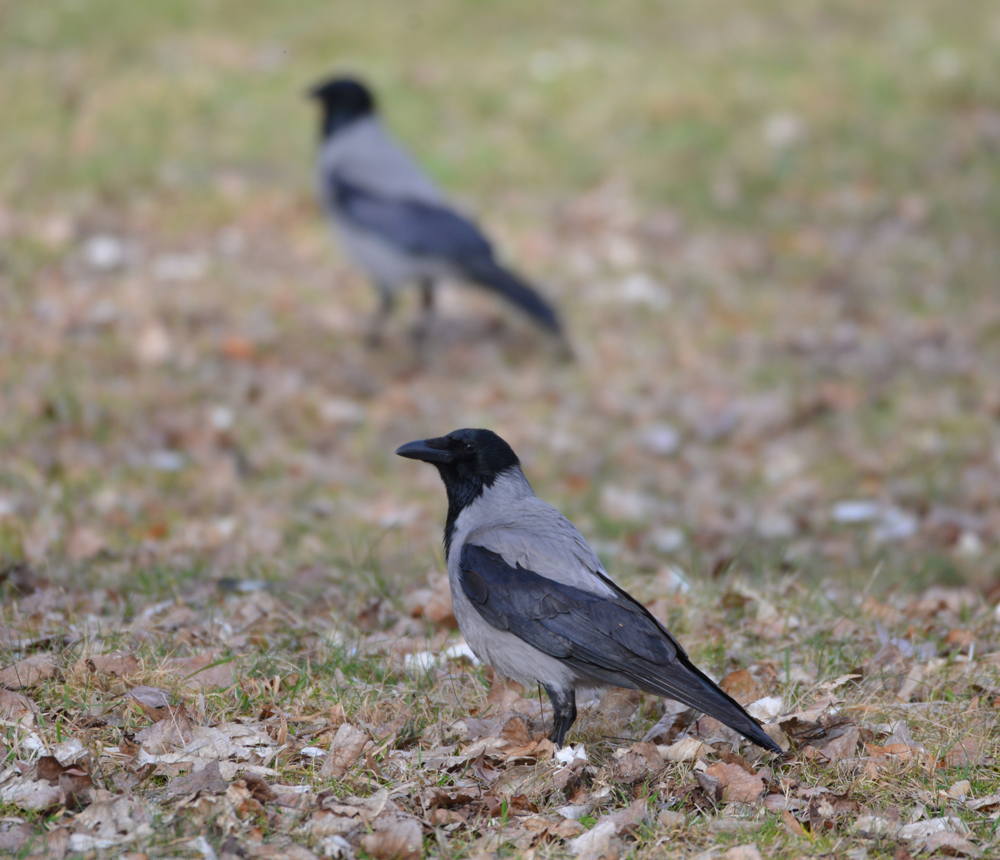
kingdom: Animalia
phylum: Chordata
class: Aves
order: Passeriformes
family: Corvidae
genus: Corvus
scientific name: Corvus cornix
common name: Hooded crow
